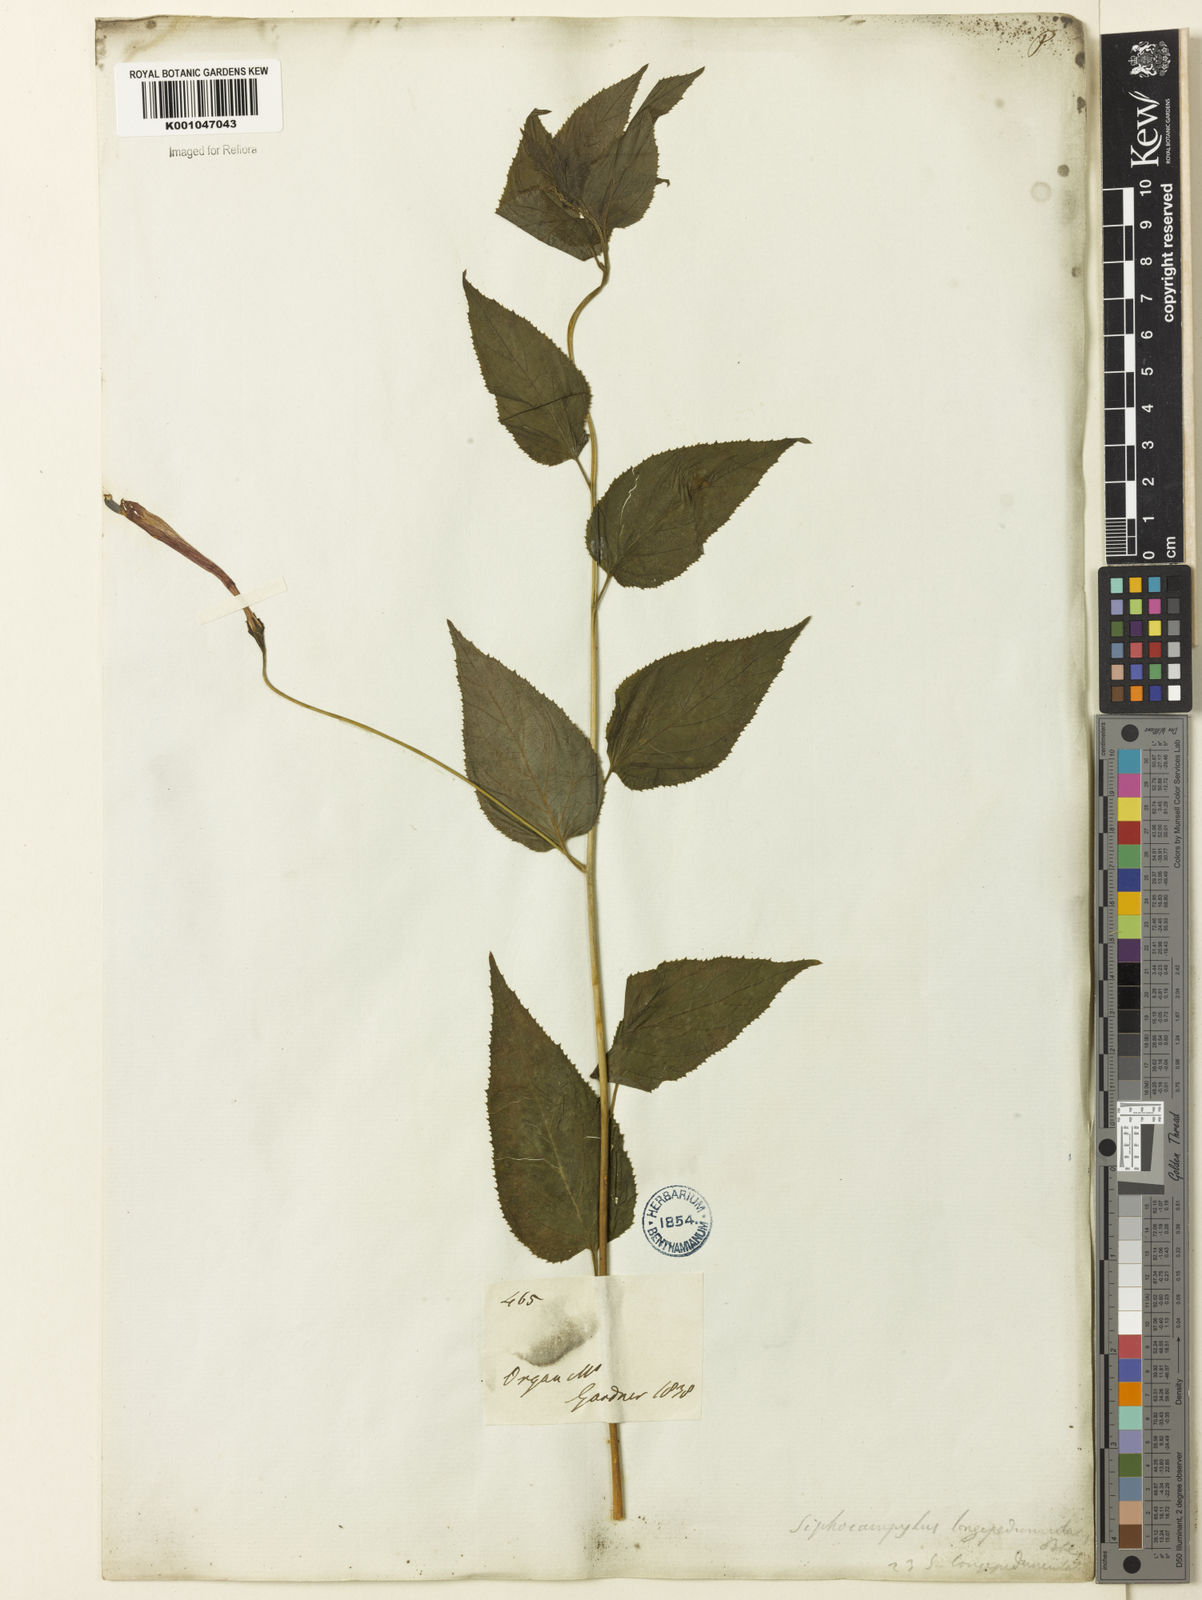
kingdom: Plantae
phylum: Tracheophyta
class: Magnoliopsida
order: Asterales
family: Campanulaceae
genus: Siphocampylus
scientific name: Siphocampylus longipedunculatus
